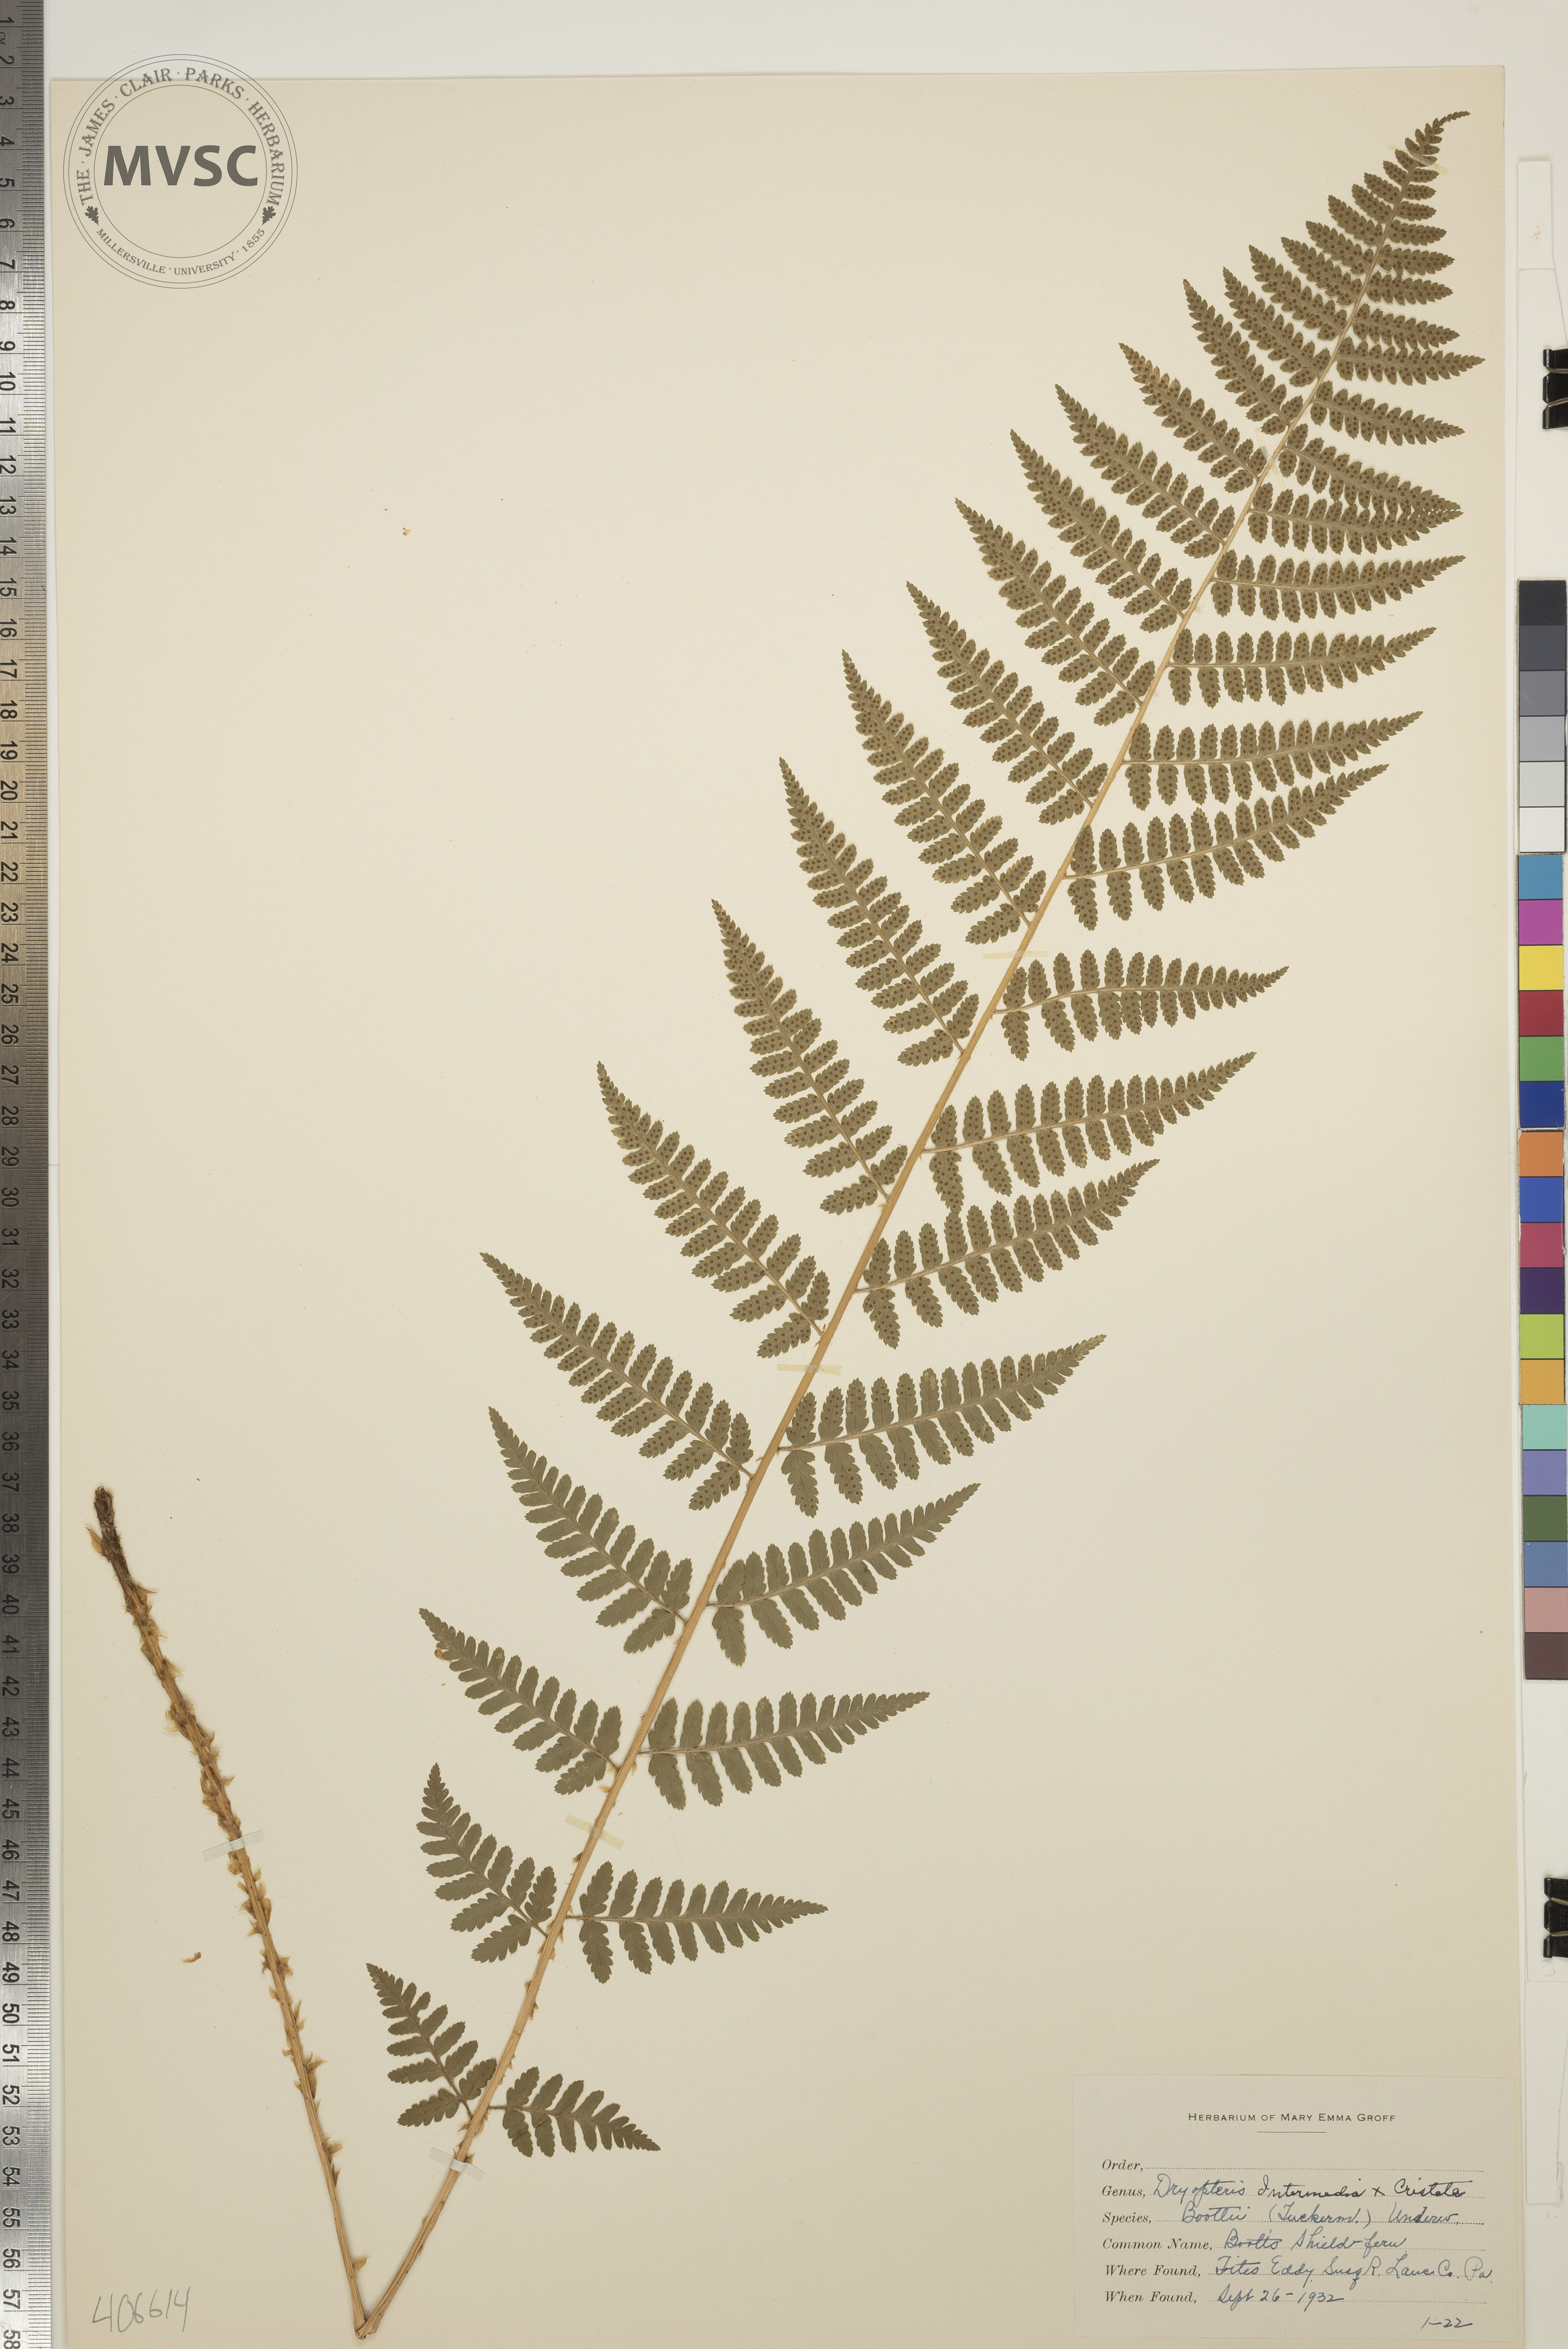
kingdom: Plantae
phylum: Tracheophyta
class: Polypodiopsida
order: Polypodiales
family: Dryopteridaceae
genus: Dryopteris
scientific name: Dryopteris
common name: Boott's Shield Fern
